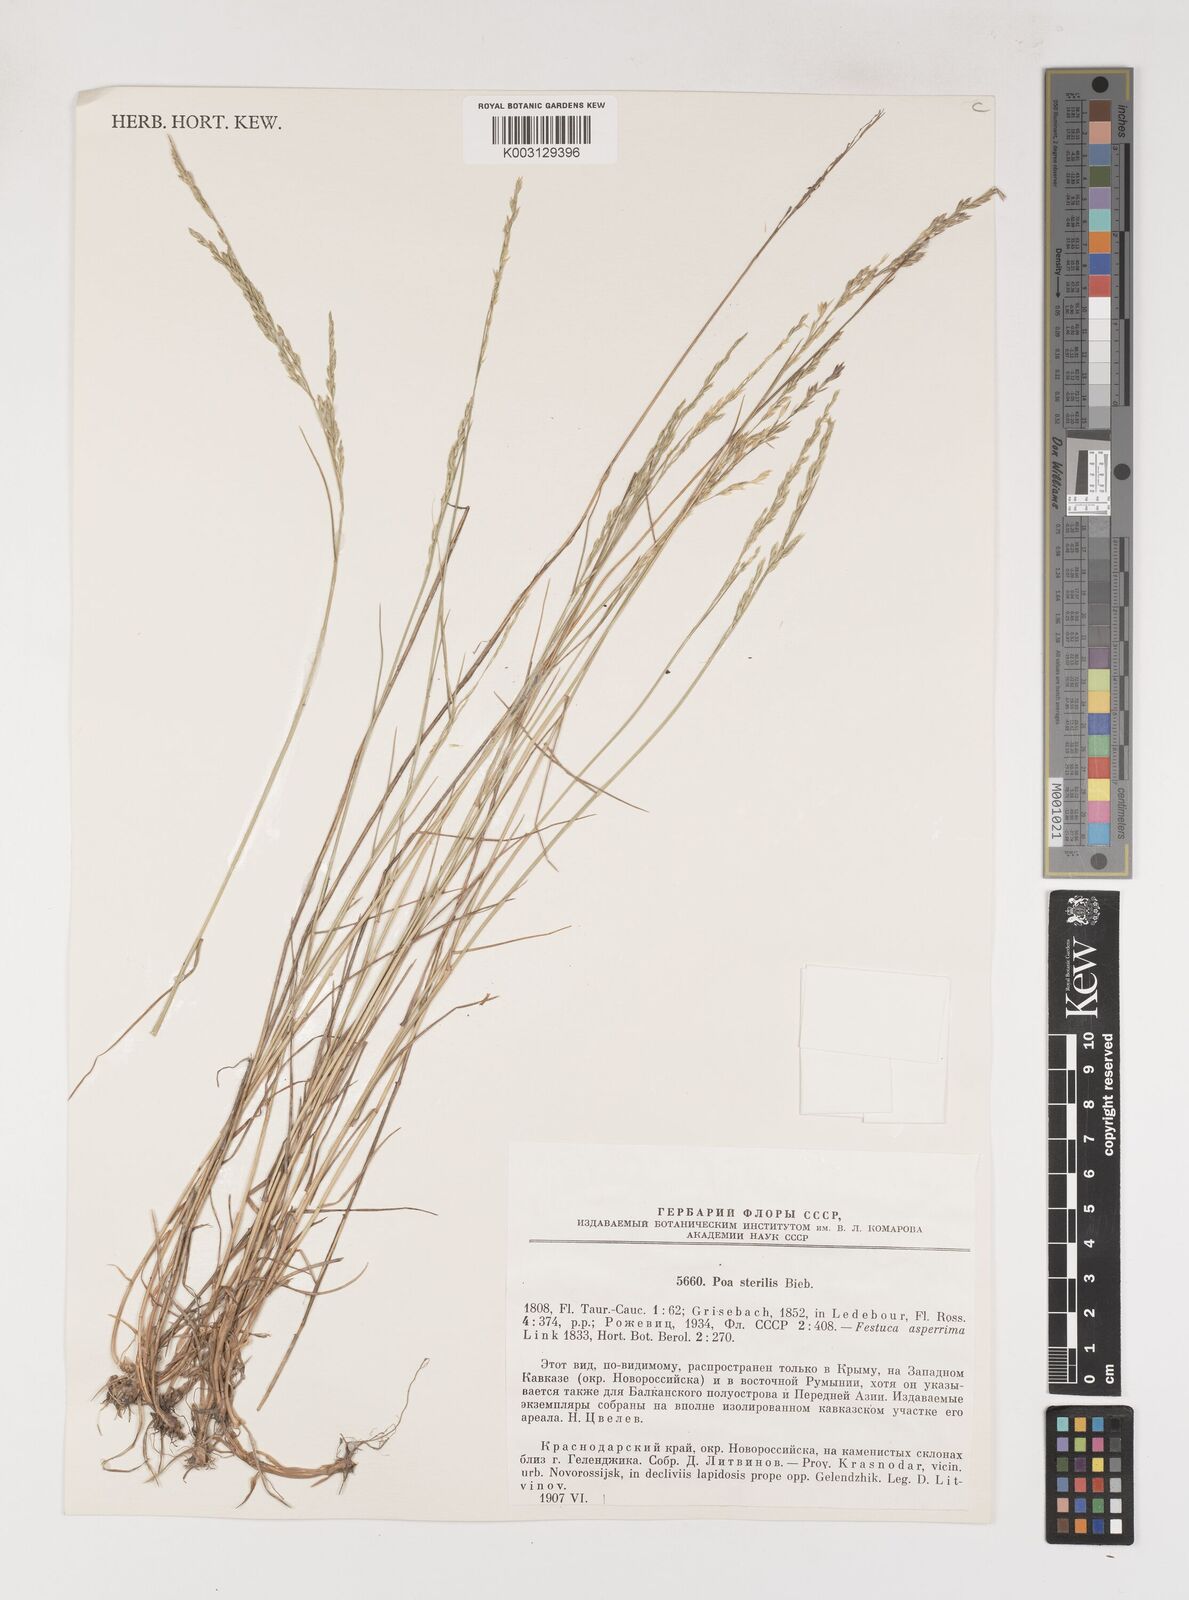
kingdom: Plantae
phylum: Tracheophyta
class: Liliopsida
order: Poales
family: Poaceae
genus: Poa
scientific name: Poa sterilis
